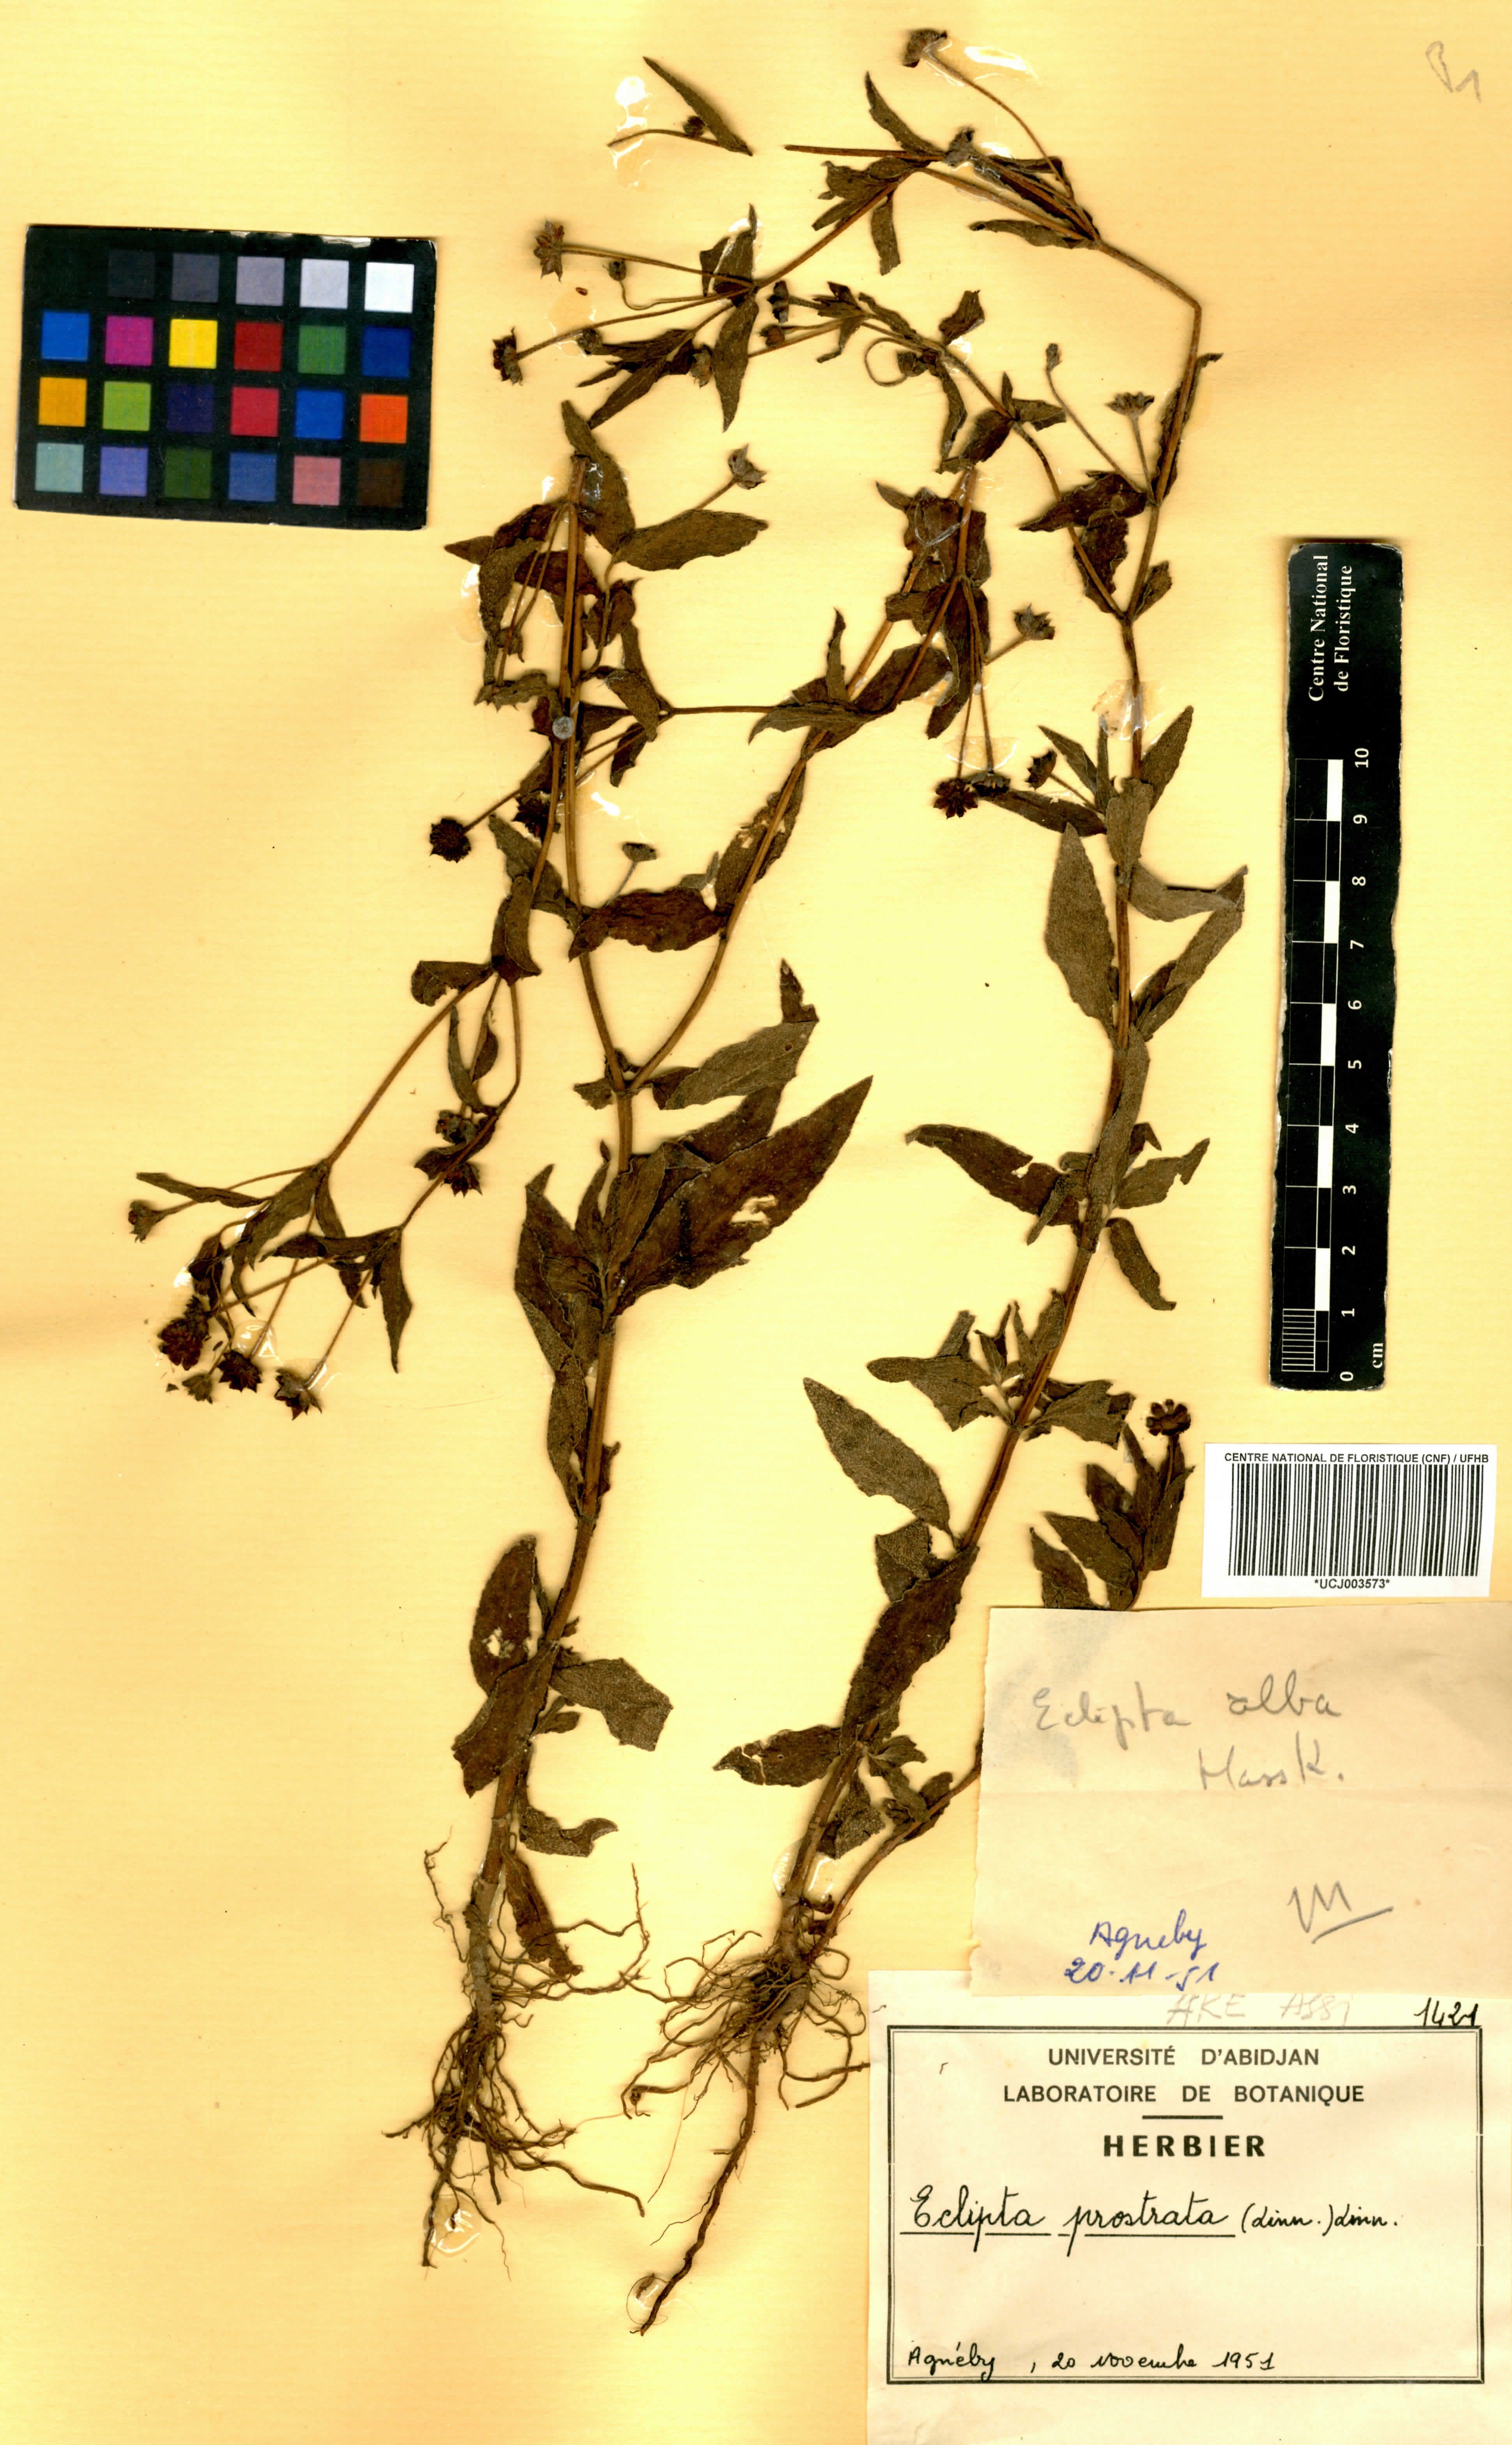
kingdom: Plantae
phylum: Tracheophyta
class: Magnoliopsida
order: Asterales
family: Asteraceae
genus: Eclipta
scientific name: Eclipta prostrata
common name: False daisy
